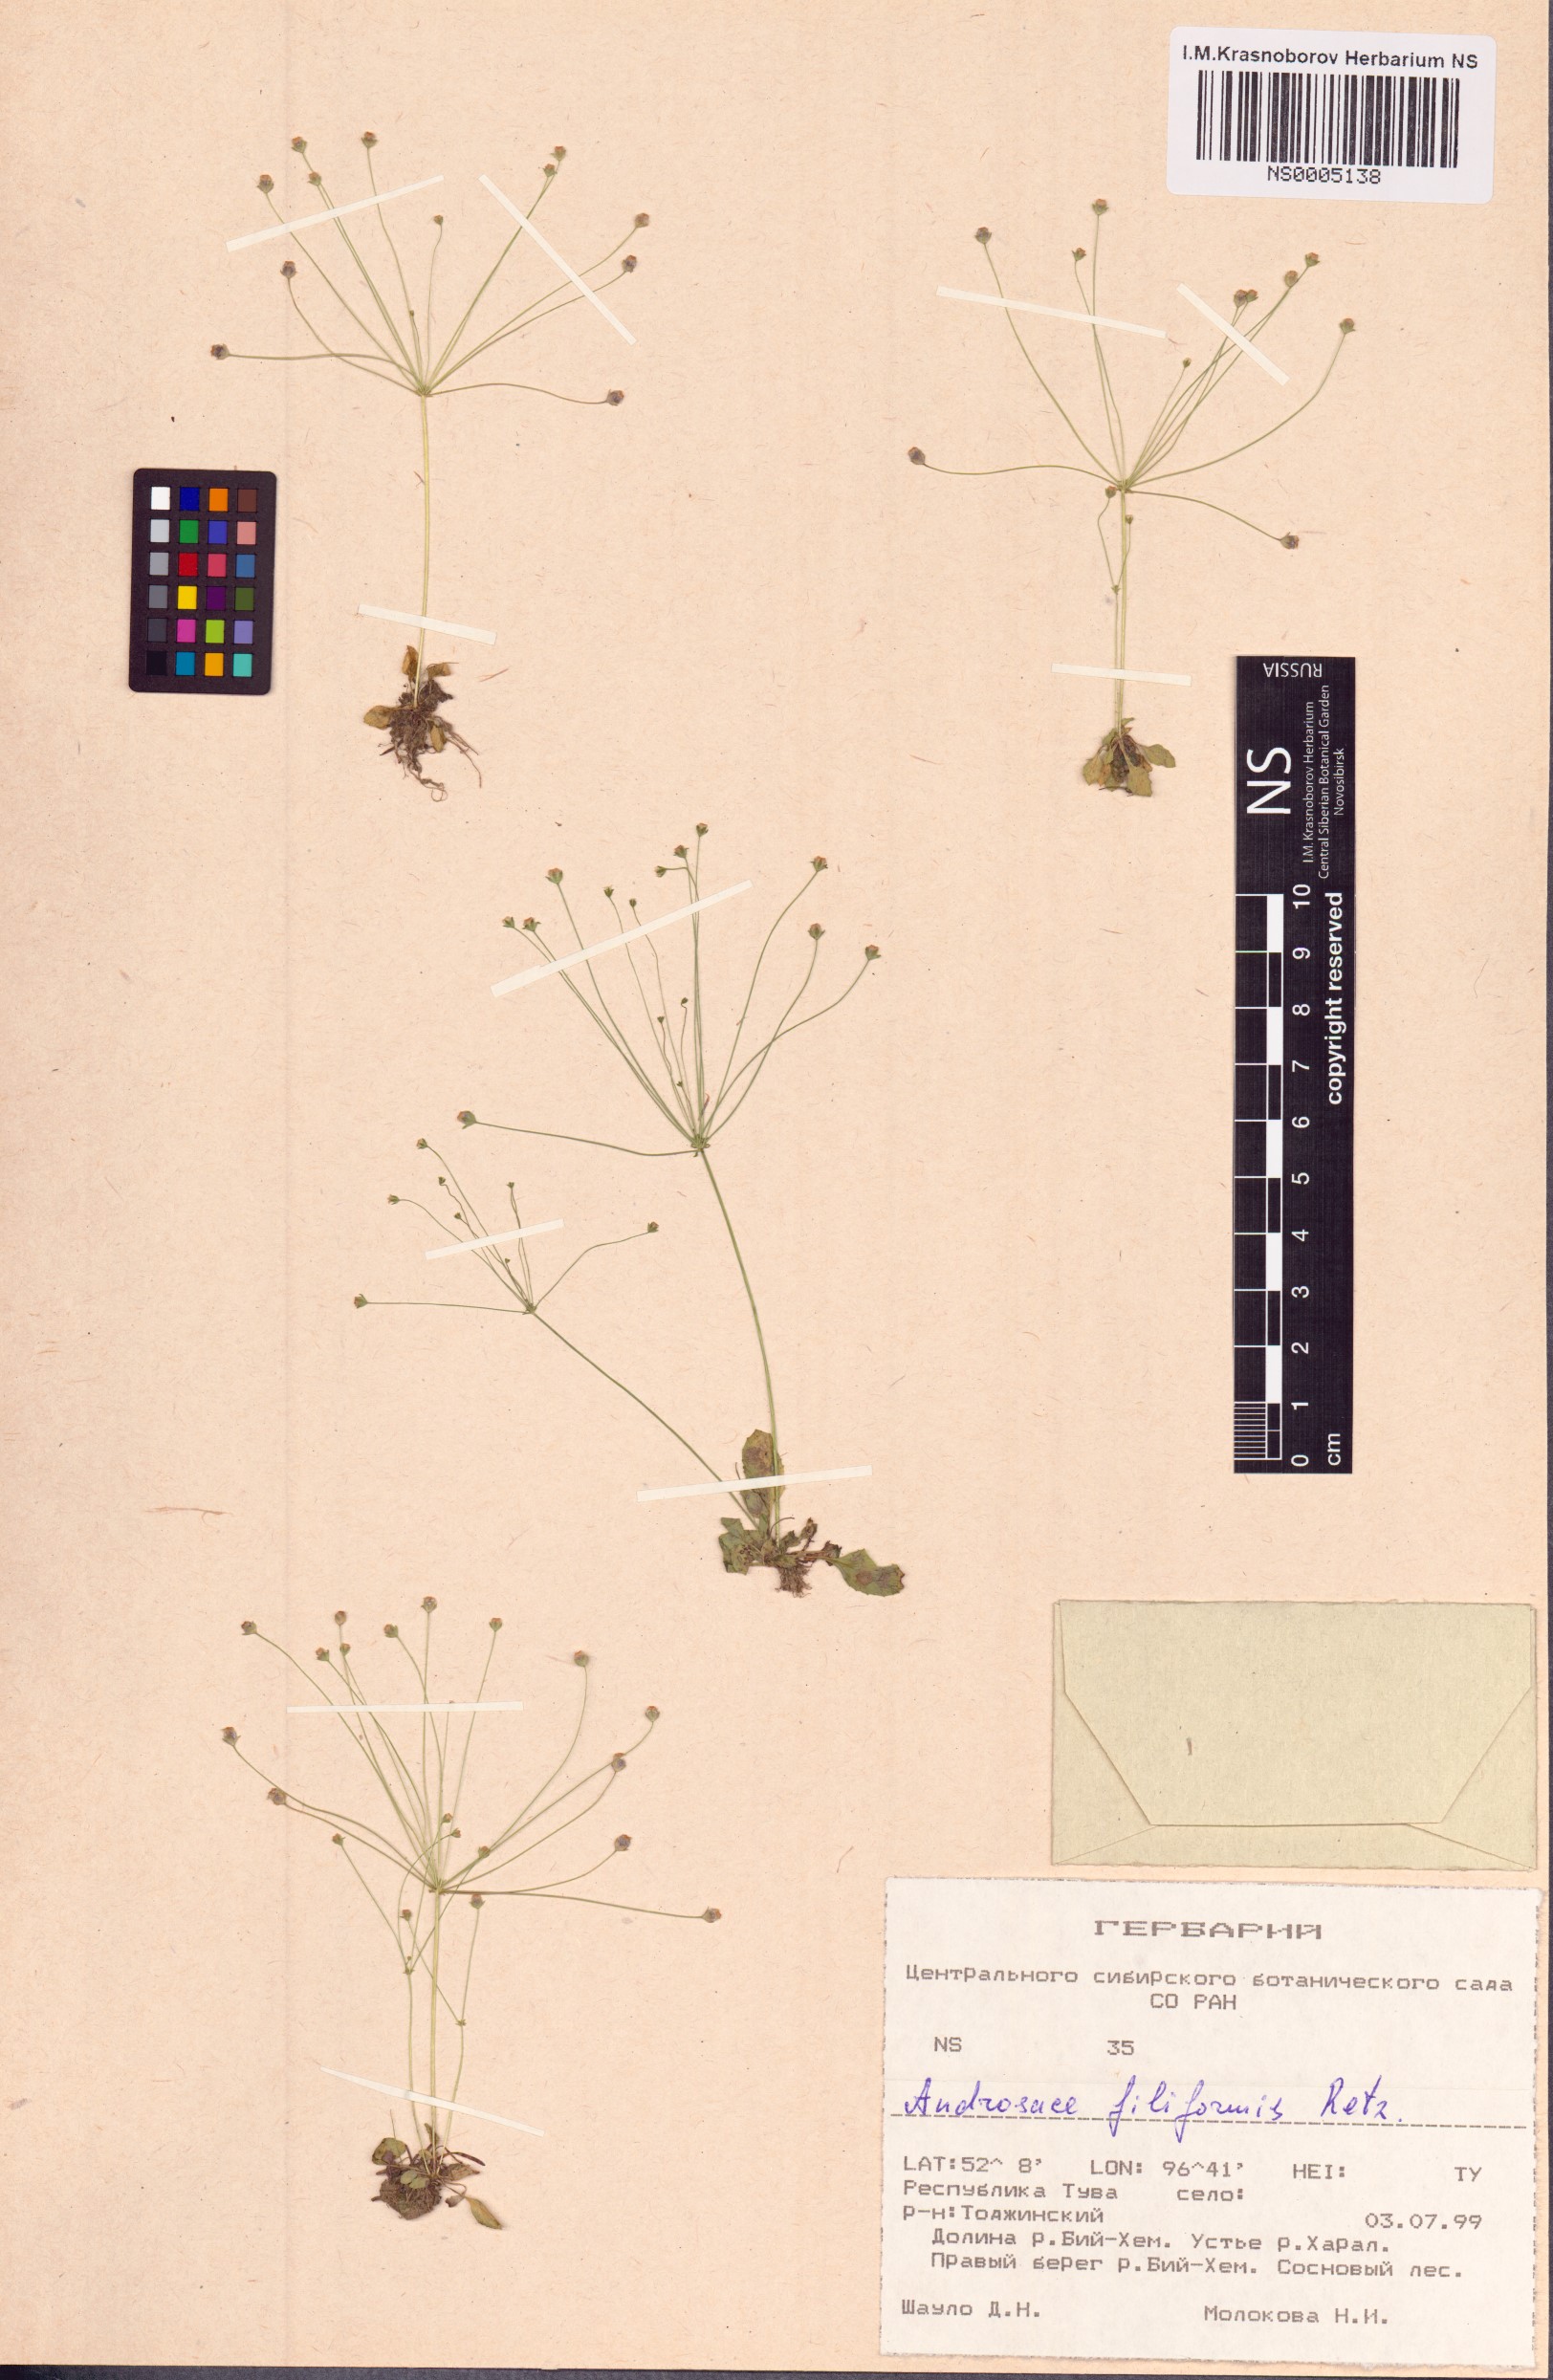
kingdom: Plantae
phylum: Tracheophyta
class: Magnoliopsida
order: Ericales
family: Primulaceae
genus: Androsace
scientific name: Androsace filiformis
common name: Filiform rock jasmine
